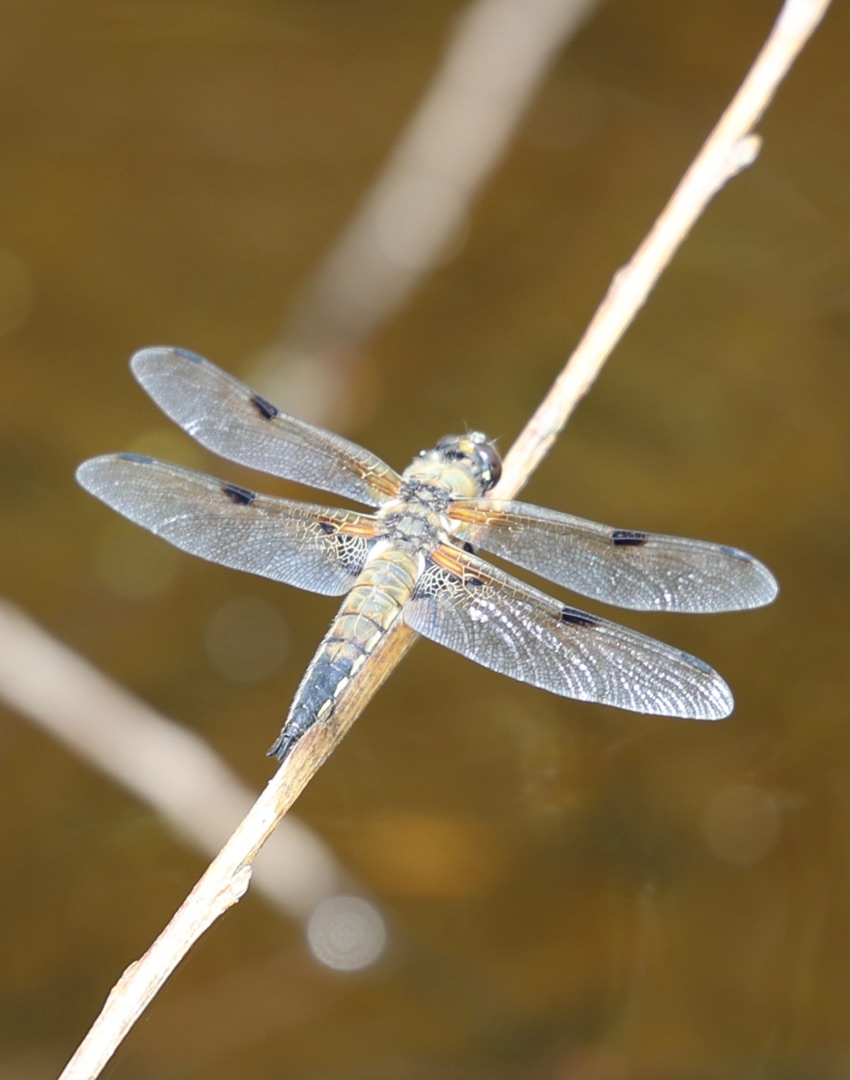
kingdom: Animalia
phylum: Arthropoda
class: Insecta
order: Odonata
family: Libellulidae
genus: Libellula
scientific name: Libellula quadrimaculata
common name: Fireplettet libel
